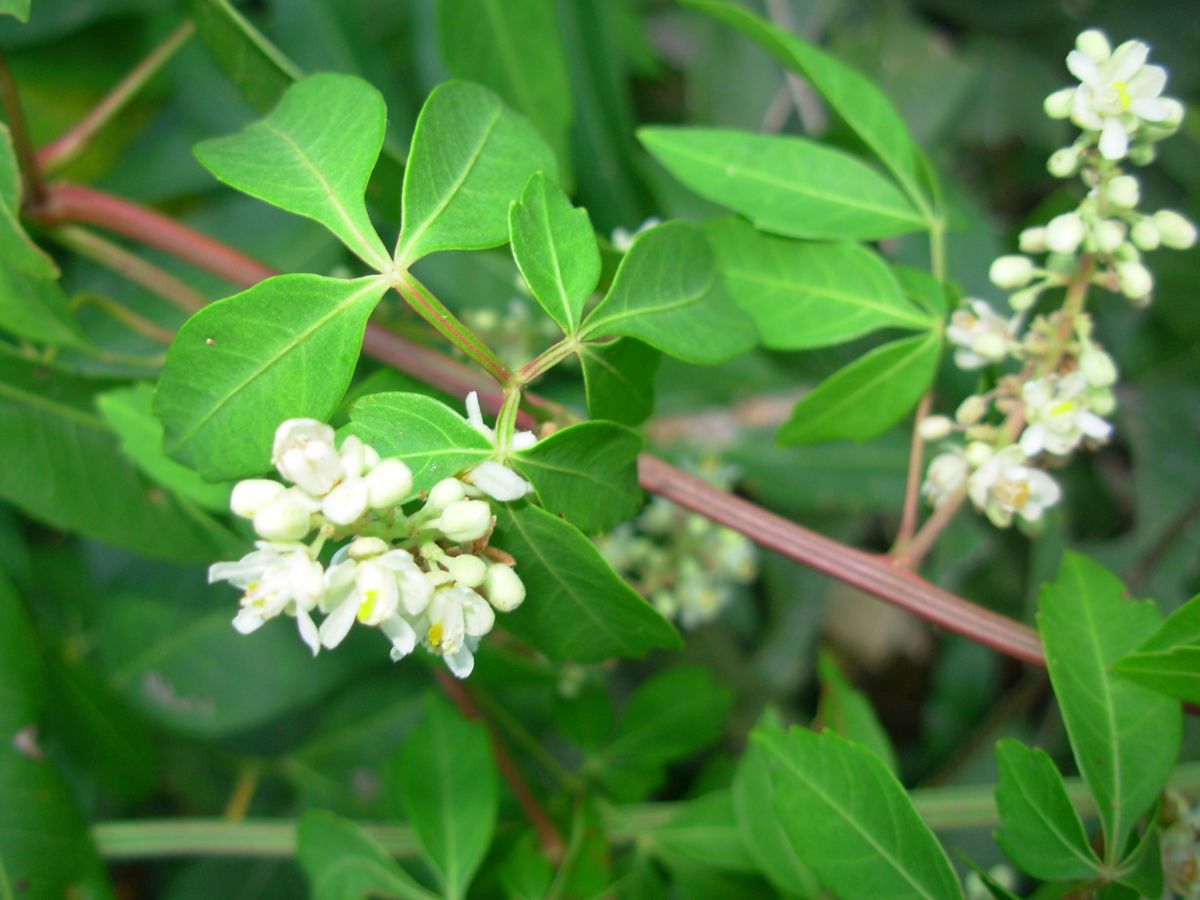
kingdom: Plantae
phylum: Tracheophyta
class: Magnoliopsida
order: Sapindales
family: Sapindaceae
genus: Serjania
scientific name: Serjania atrolineata
